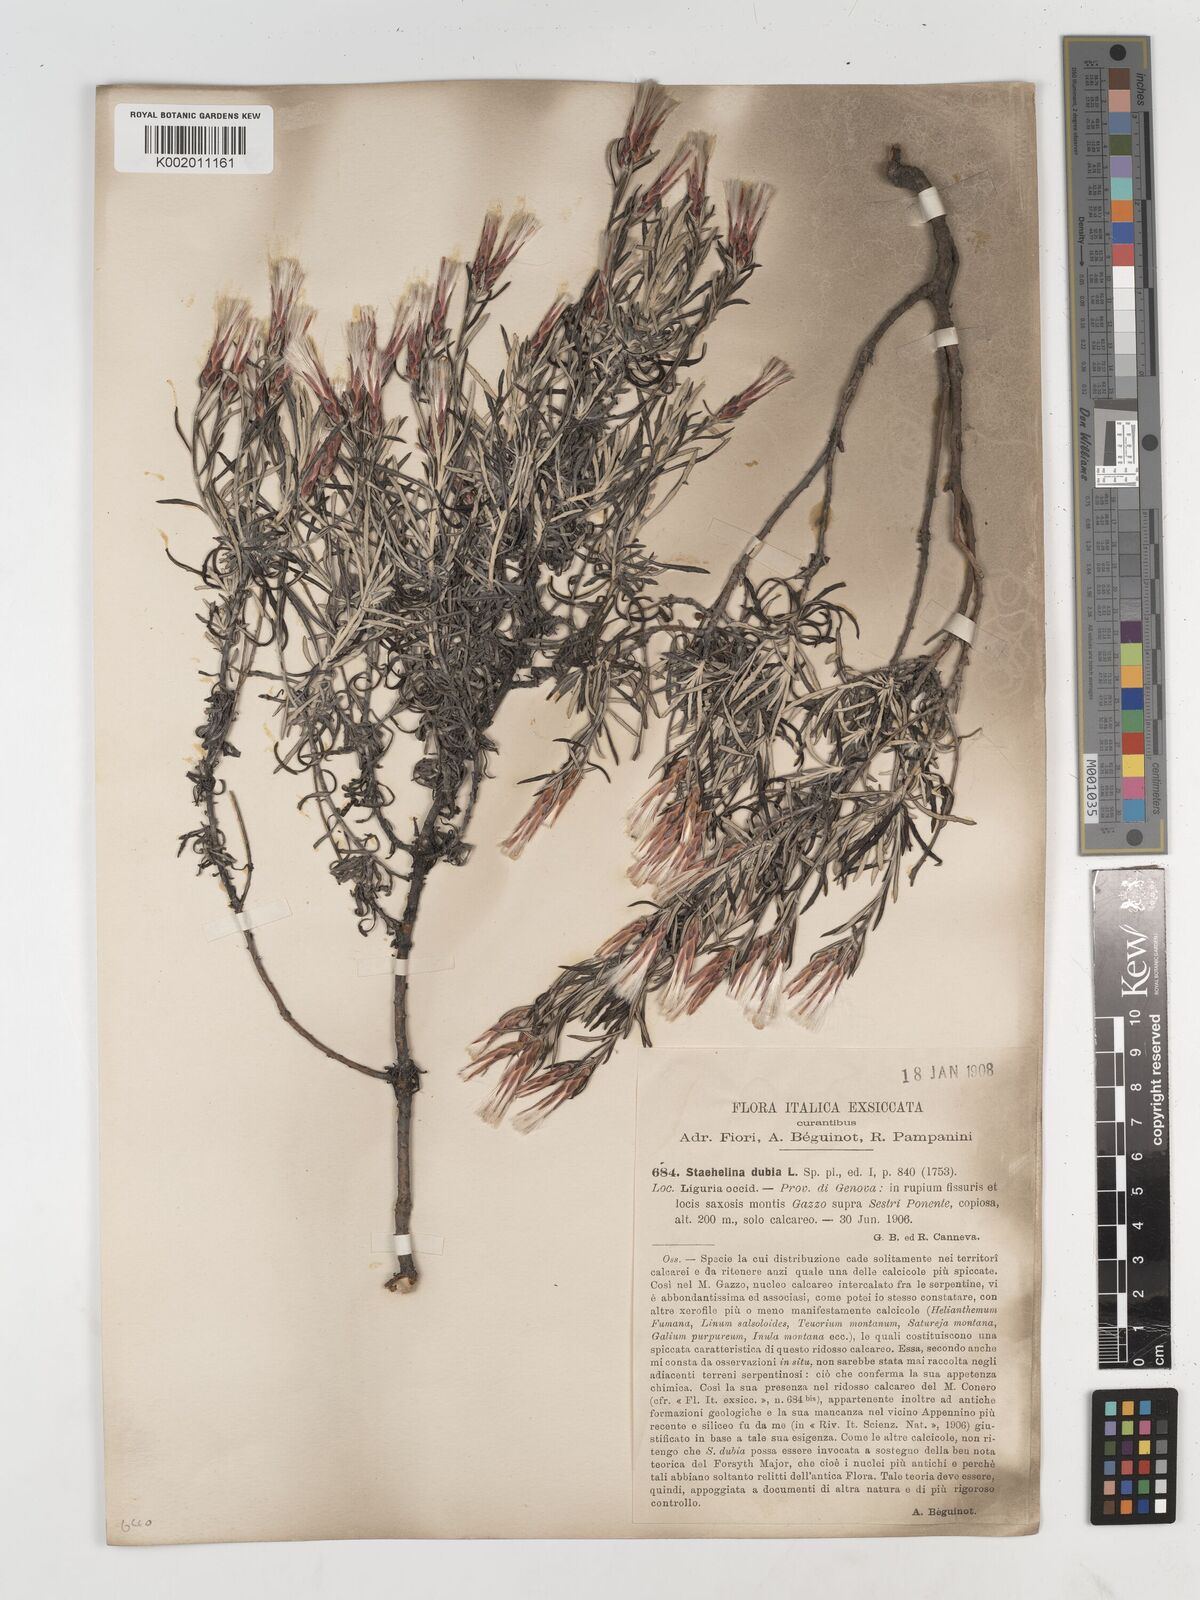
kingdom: Plantae
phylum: Tracheophyta
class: Magnoliopsida
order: Asterales
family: Asteraceae
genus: Staehelina
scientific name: Staehelina dubia
